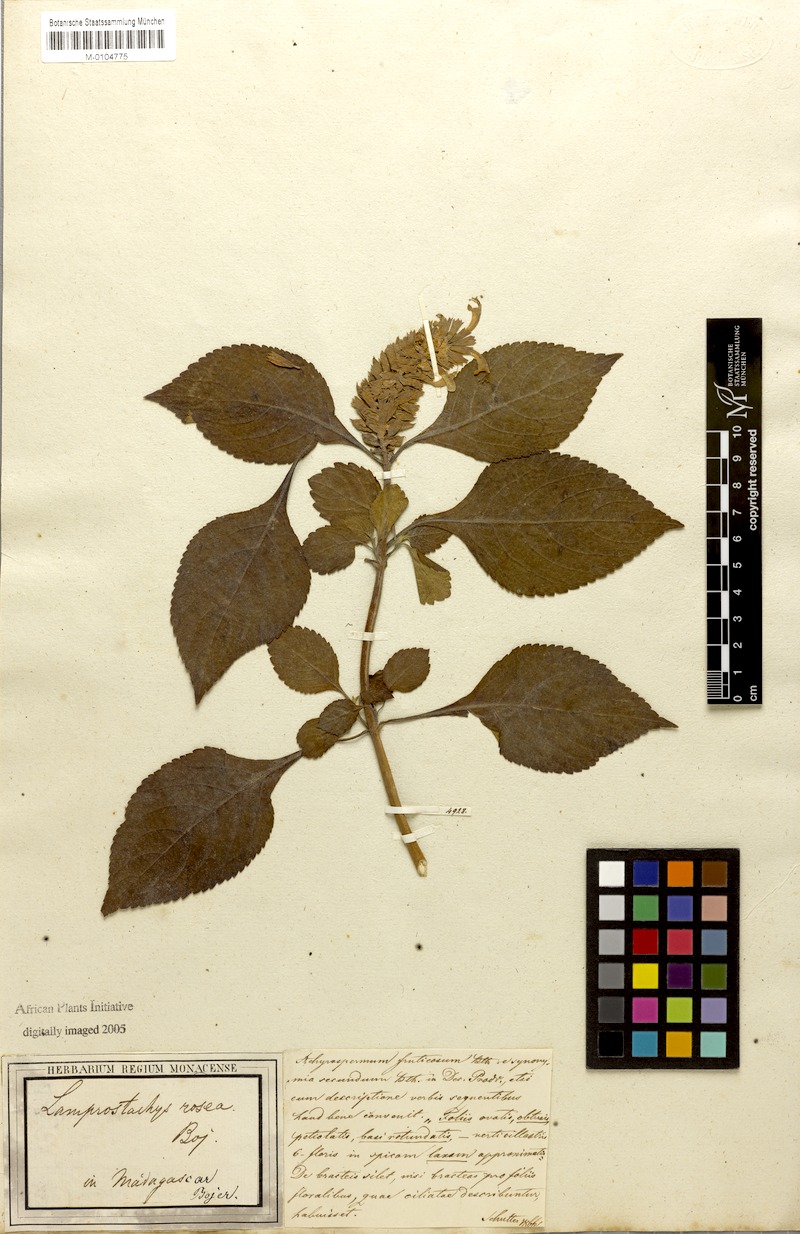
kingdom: Plantae
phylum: Tracheophyta
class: Magnoliopsida
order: Lamiales
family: Lamiaceae
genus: Achyrospermum
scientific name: Achyrospermum fruticosum
